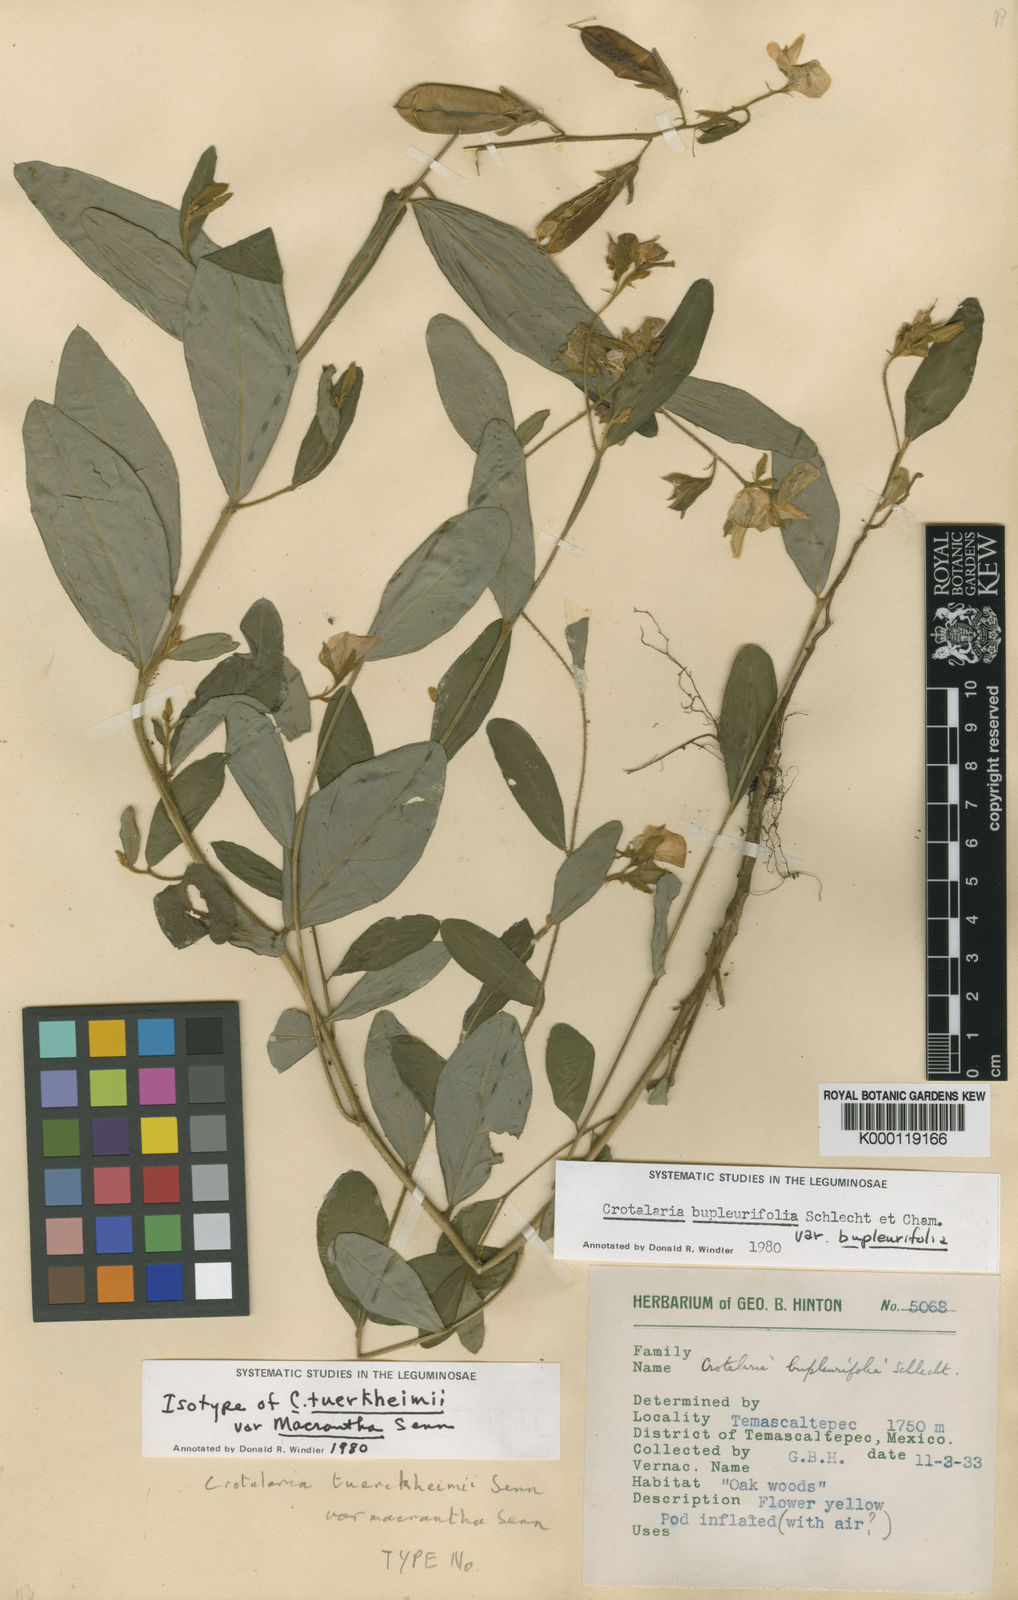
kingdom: Plantae
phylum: Tracheophyta
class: Magnoliopsida
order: Fabales
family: Fabaceae
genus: Crotalaria
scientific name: Crotalaria sagittalis
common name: Arrowhead rattlebox
